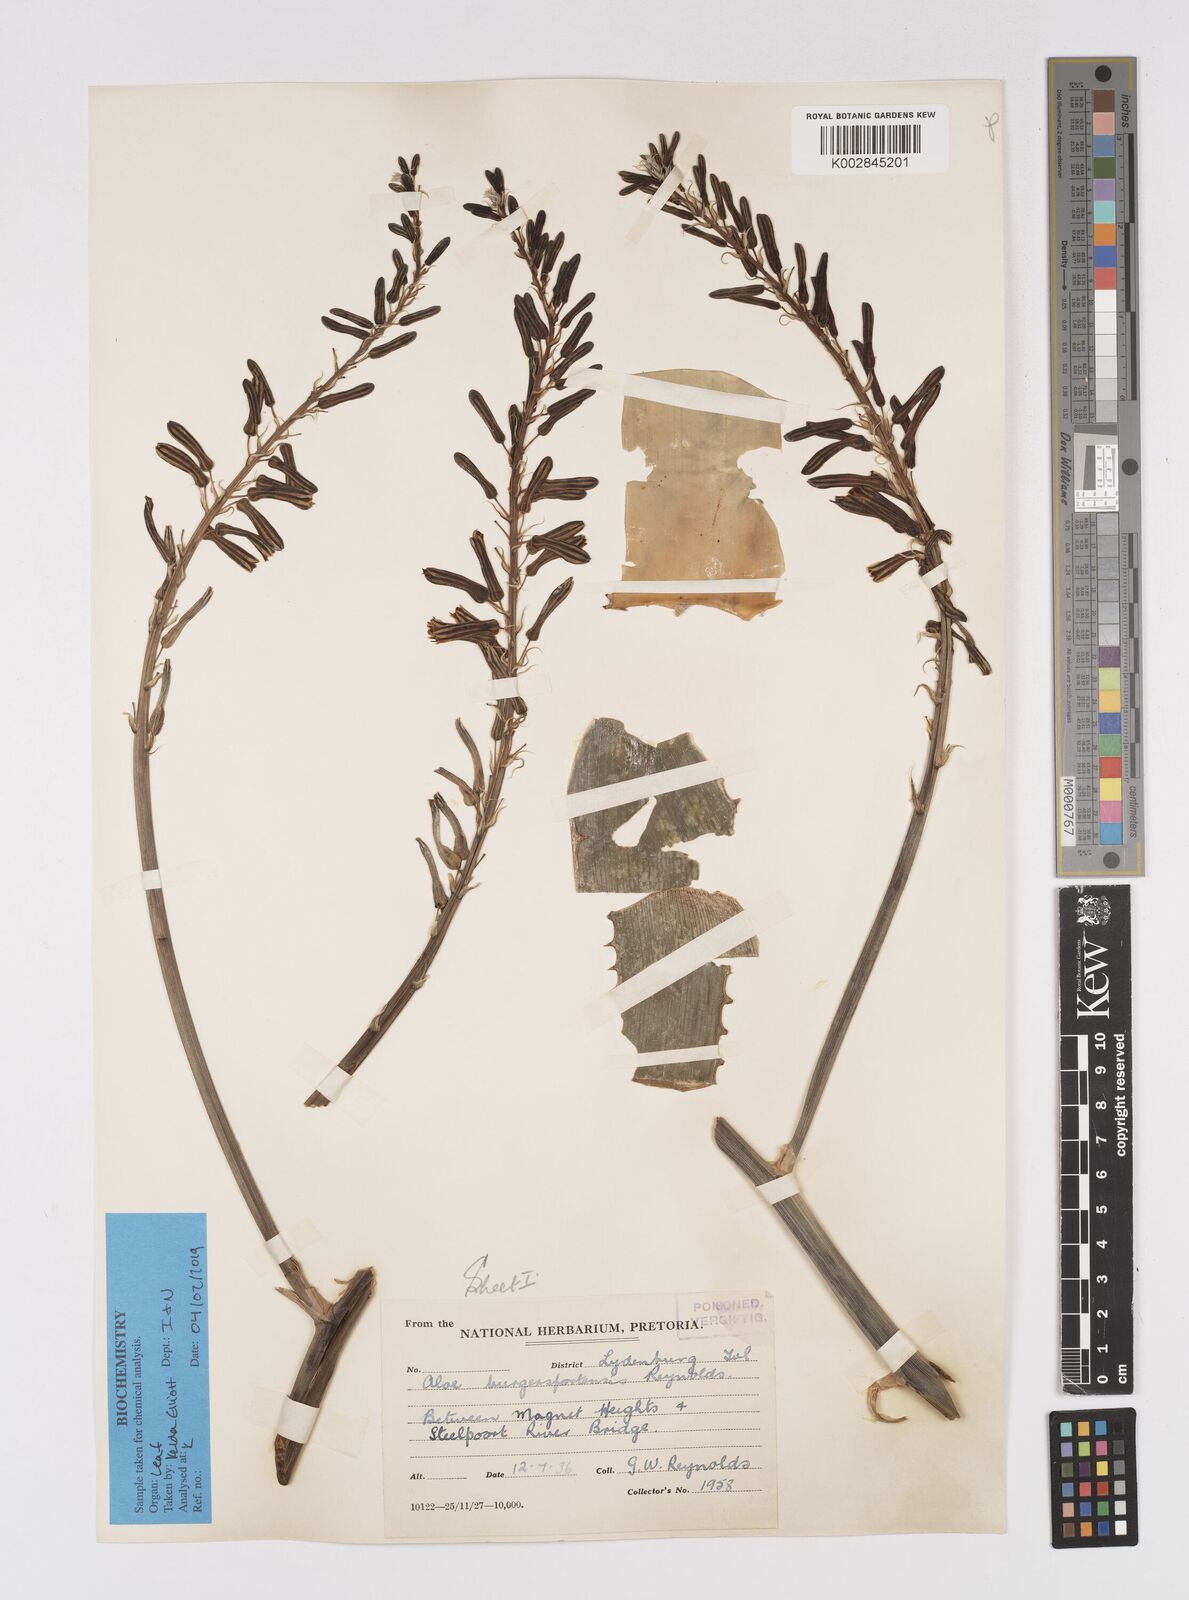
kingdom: Plantae
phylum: Tracheophyta
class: Liliopsida
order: Asparagales
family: Asphodelaceae
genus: Aloe
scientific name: Aloe burgersfortensis
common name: Burgersfort aloe
